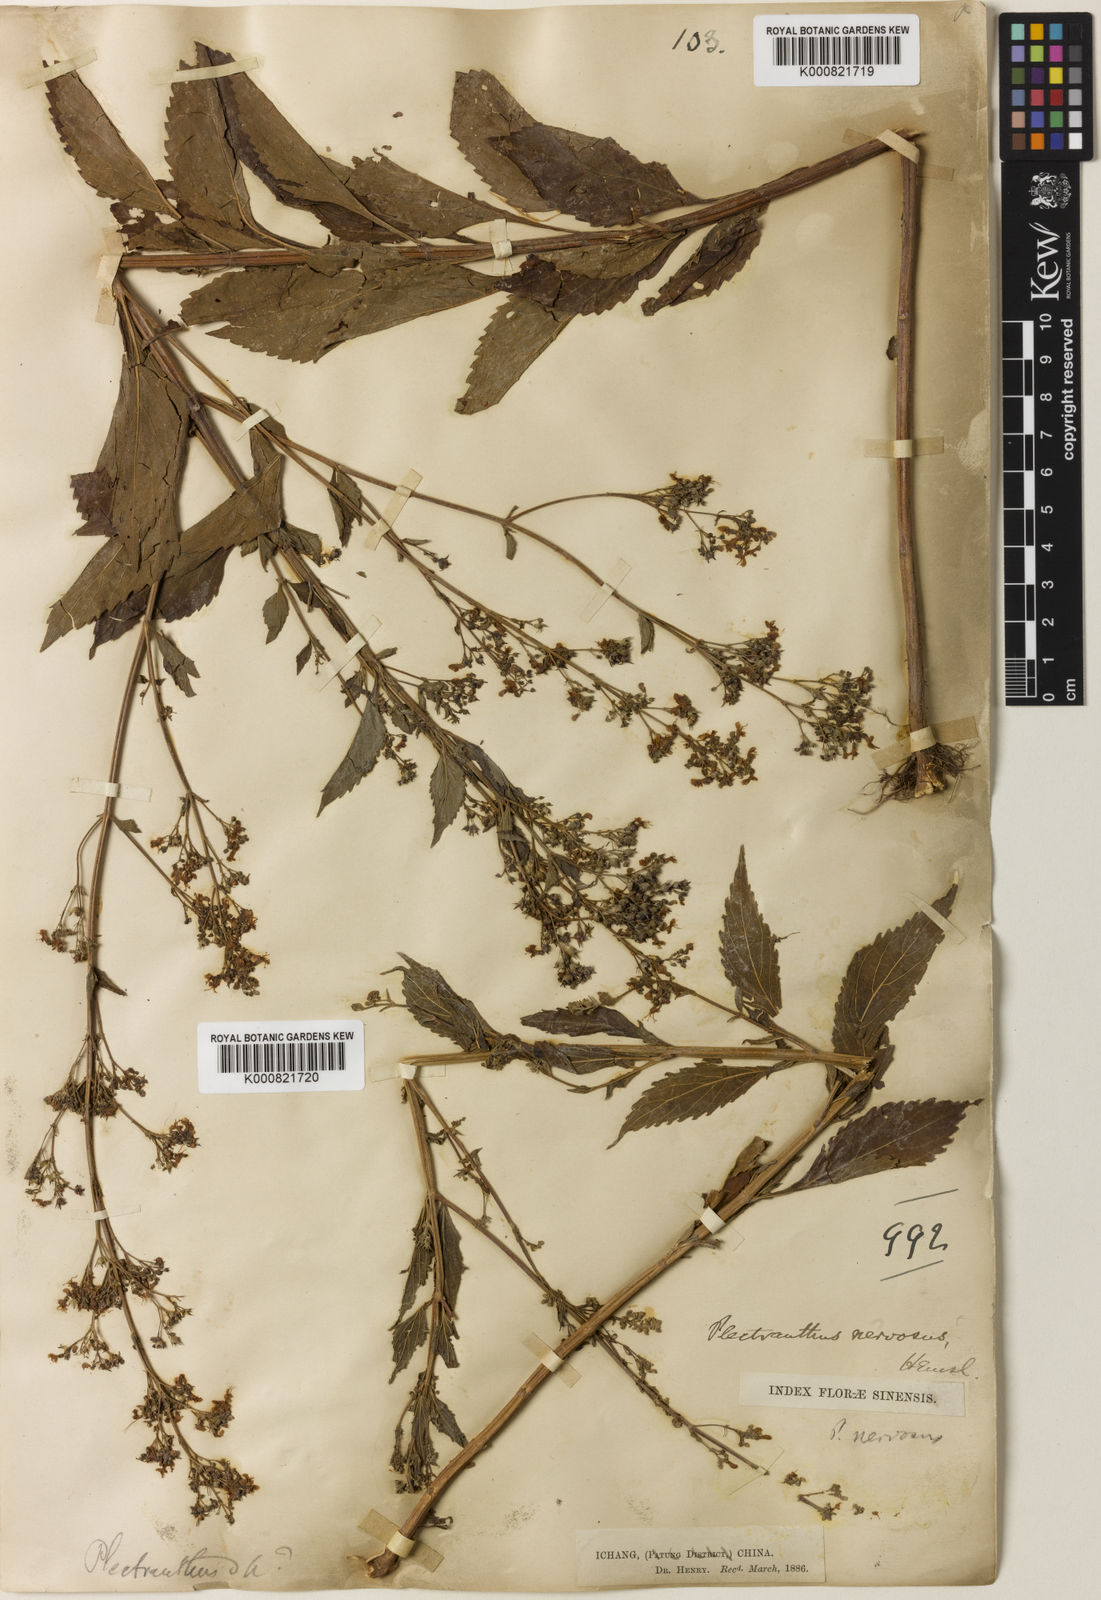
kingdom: Plantae
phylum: Tracheophyta
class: Magnoliopsida
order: Lamiales
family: Lamiaceae
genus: Isodon
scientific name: Isodon
